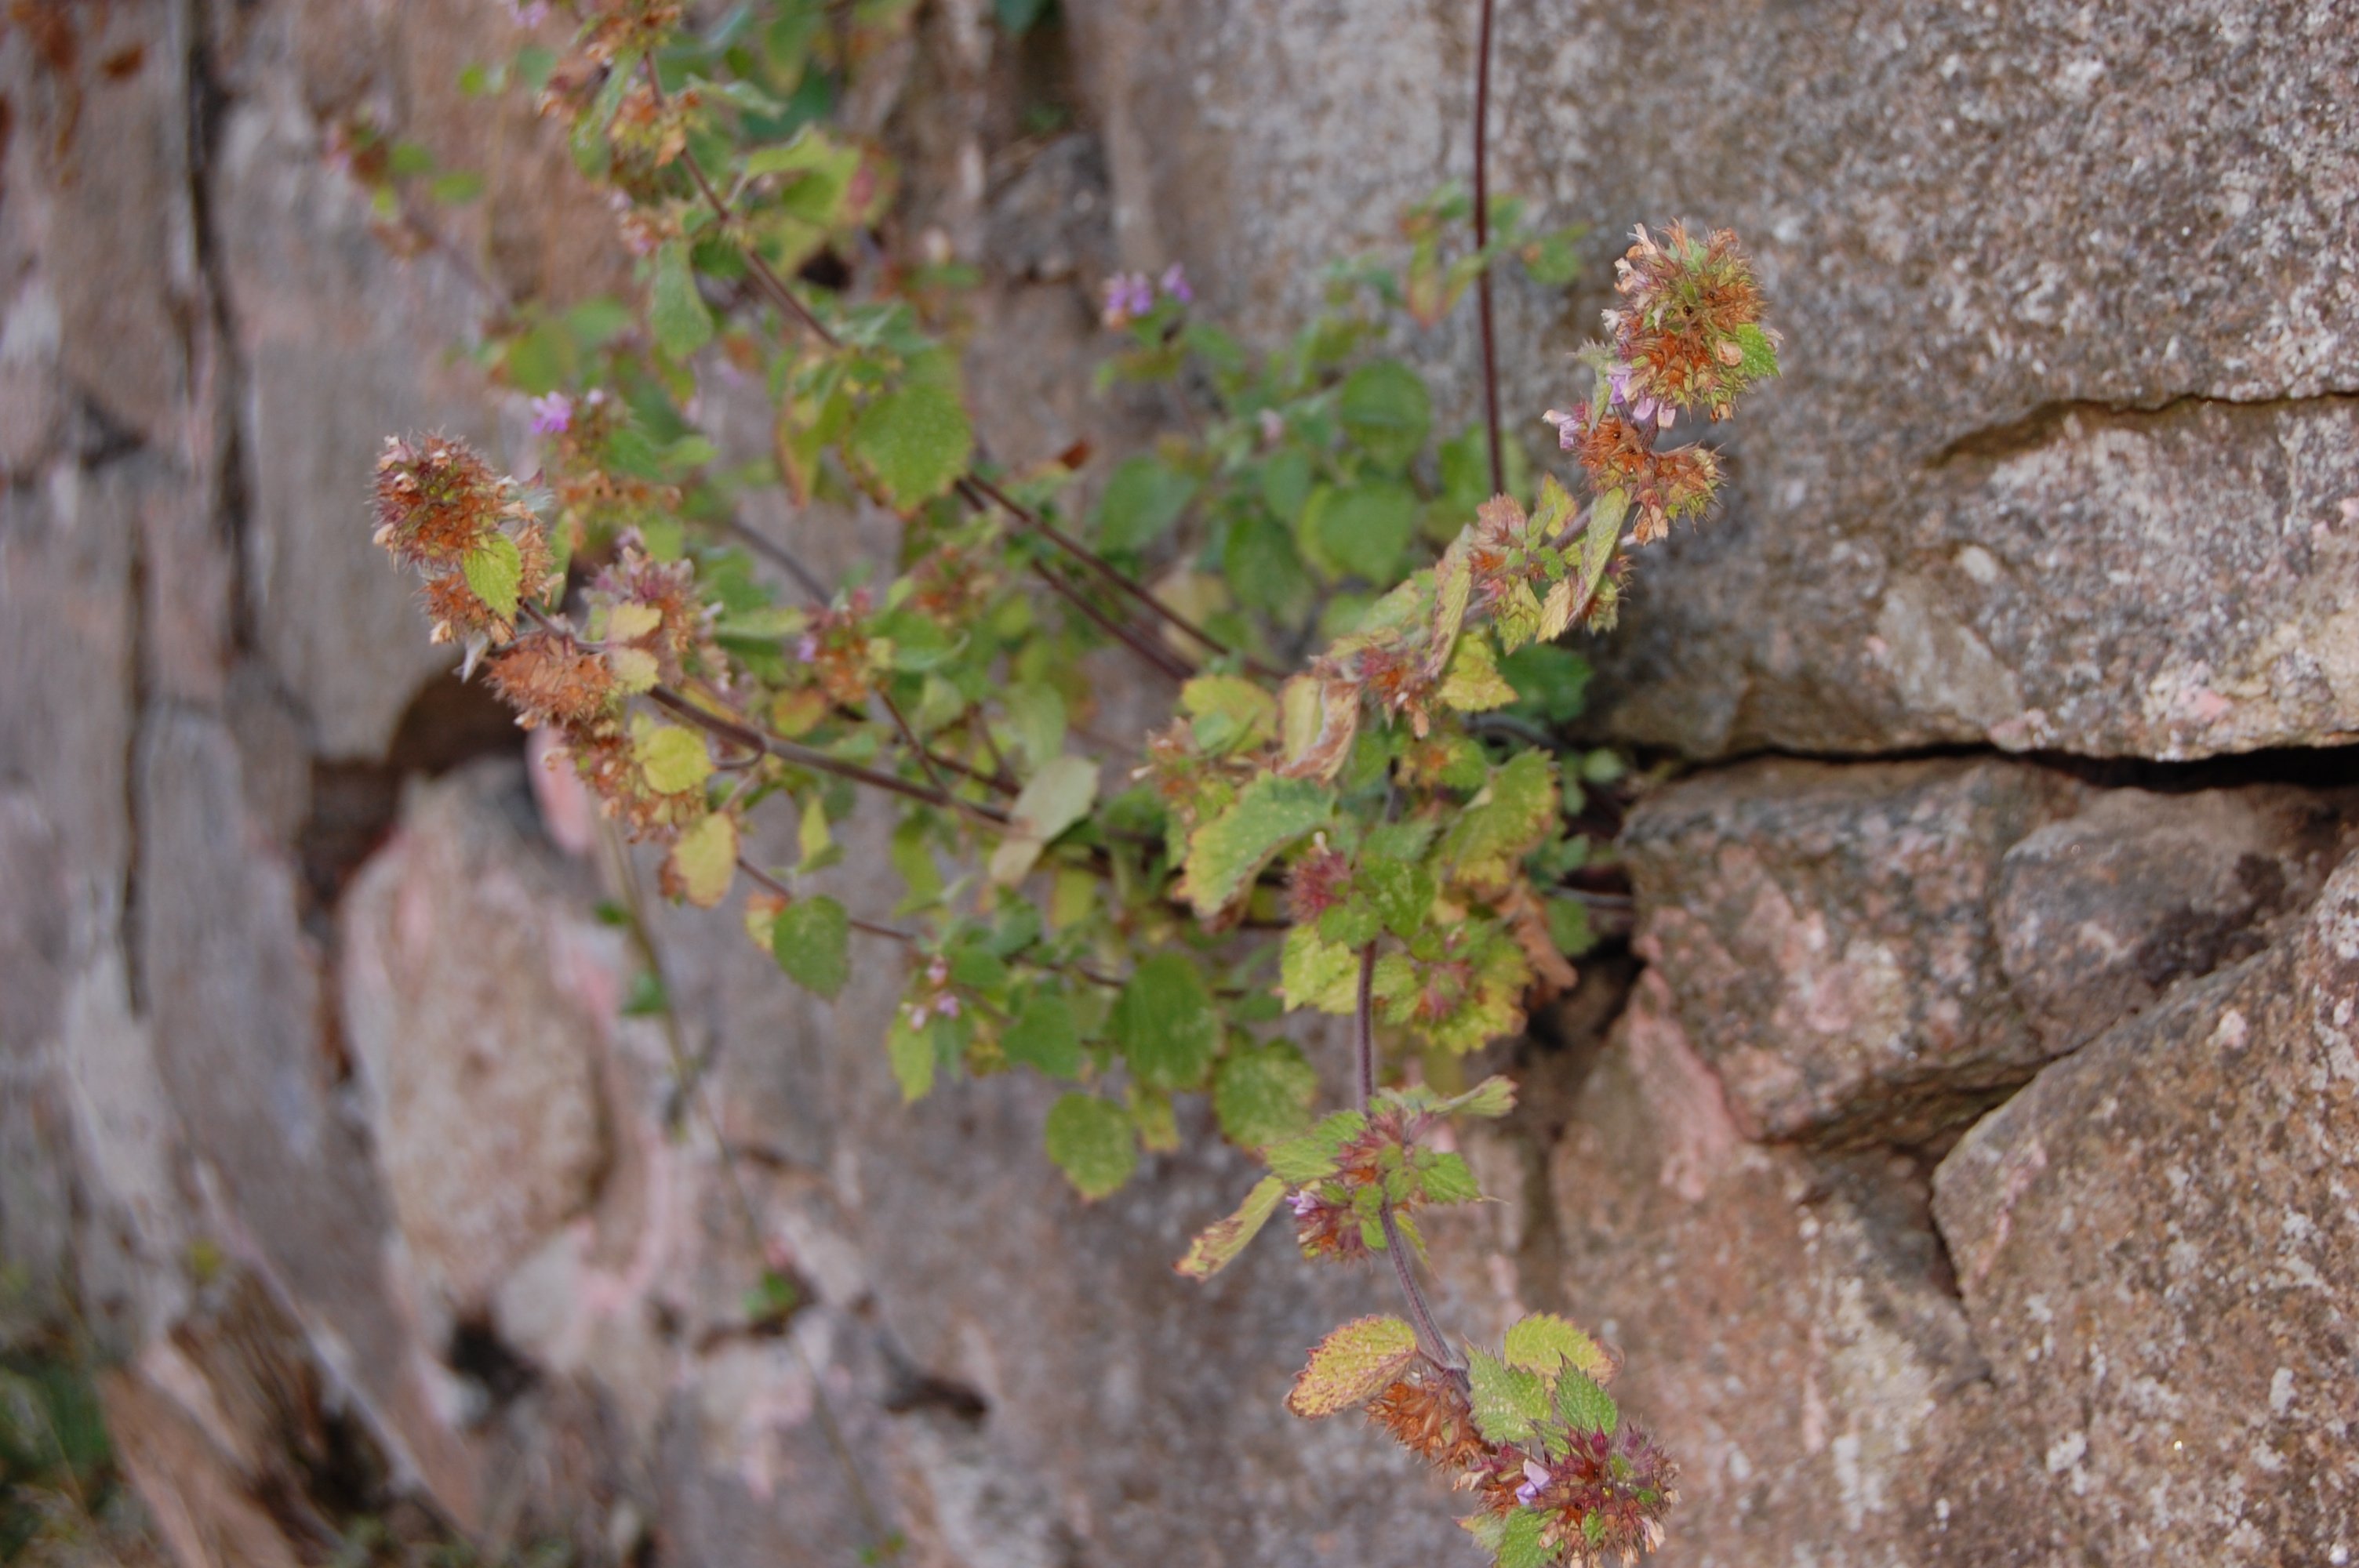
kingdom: Plantae
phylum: Tracheophyta
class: Magnoliopsida
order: Lamiales
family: Lamiaceae
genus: Ballota
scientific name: Ballota nigra
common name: Black horehound
